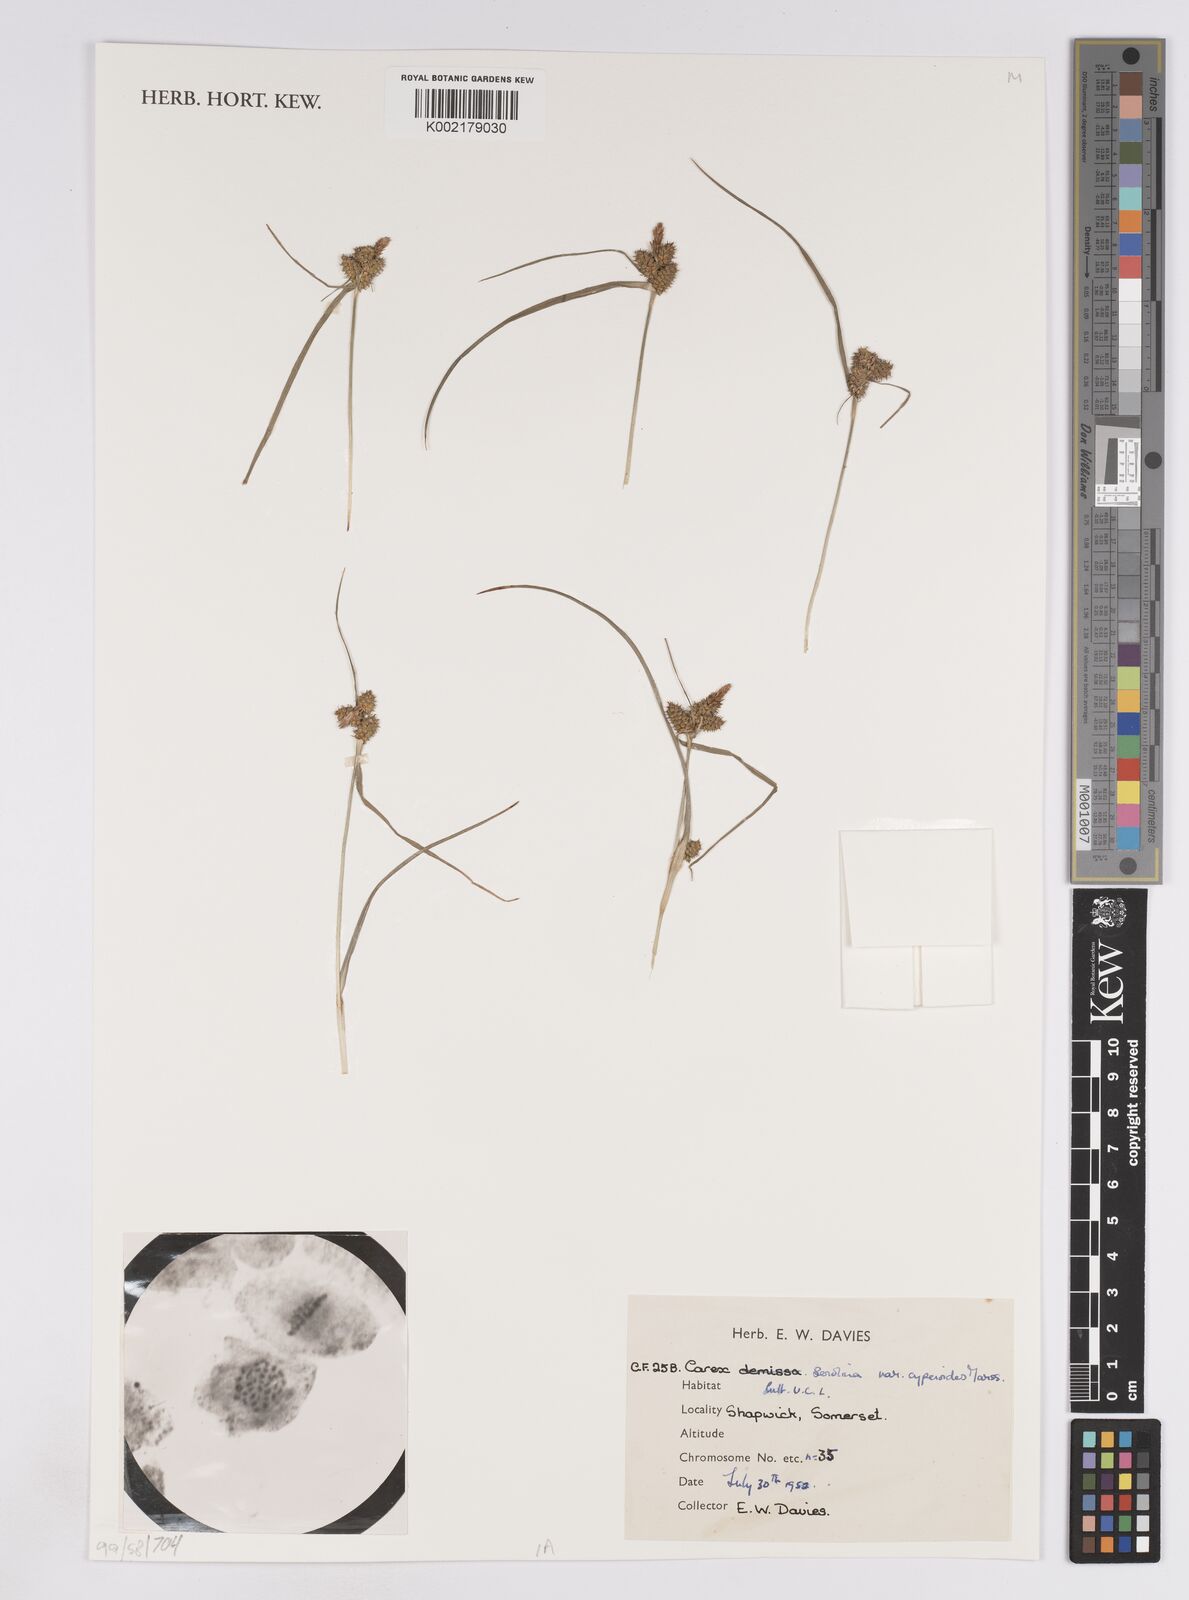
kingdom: Plantae
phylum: Tracheophyta
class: Liliopsida
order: Poales
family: Cyperaceae
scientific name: Cyperaceae
